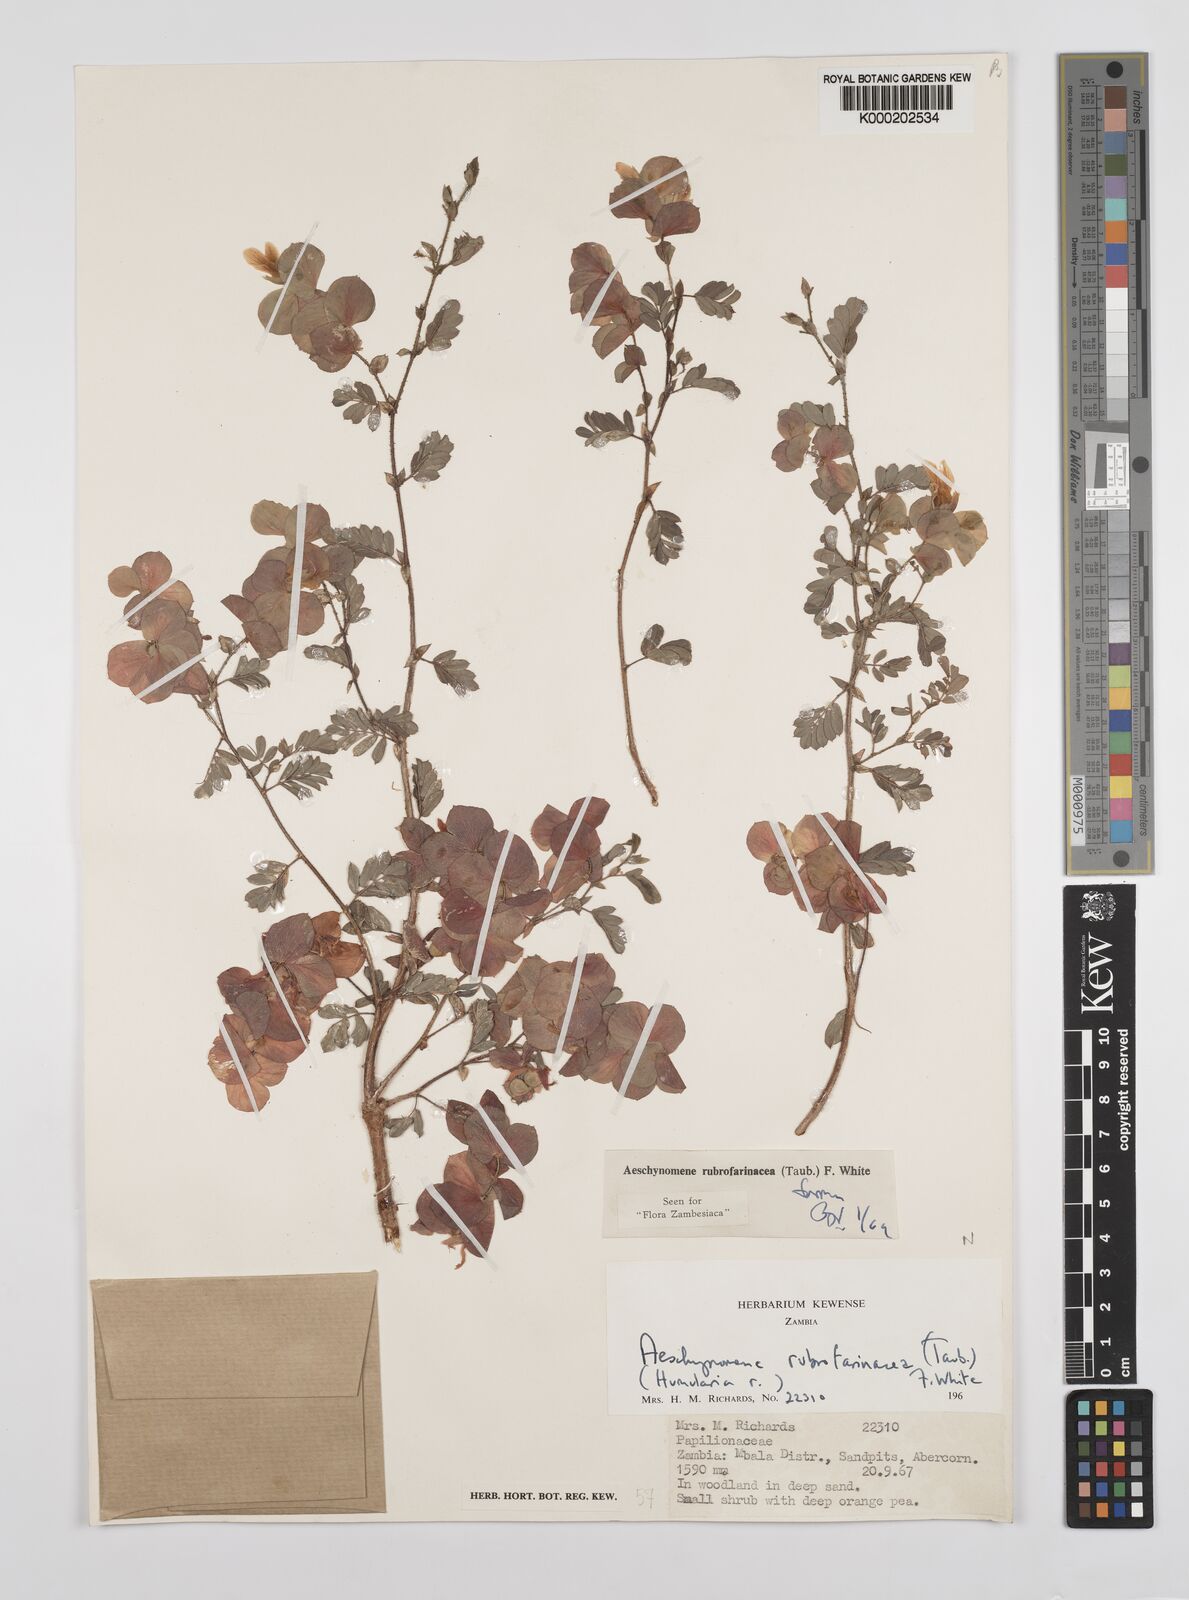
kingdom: Plantae
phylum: Tracheophyta
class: Magnoliopsida
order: Fabales
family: Fabaceae
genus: Aeschynomene
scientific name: Aeschynomene rubrofarinacea
